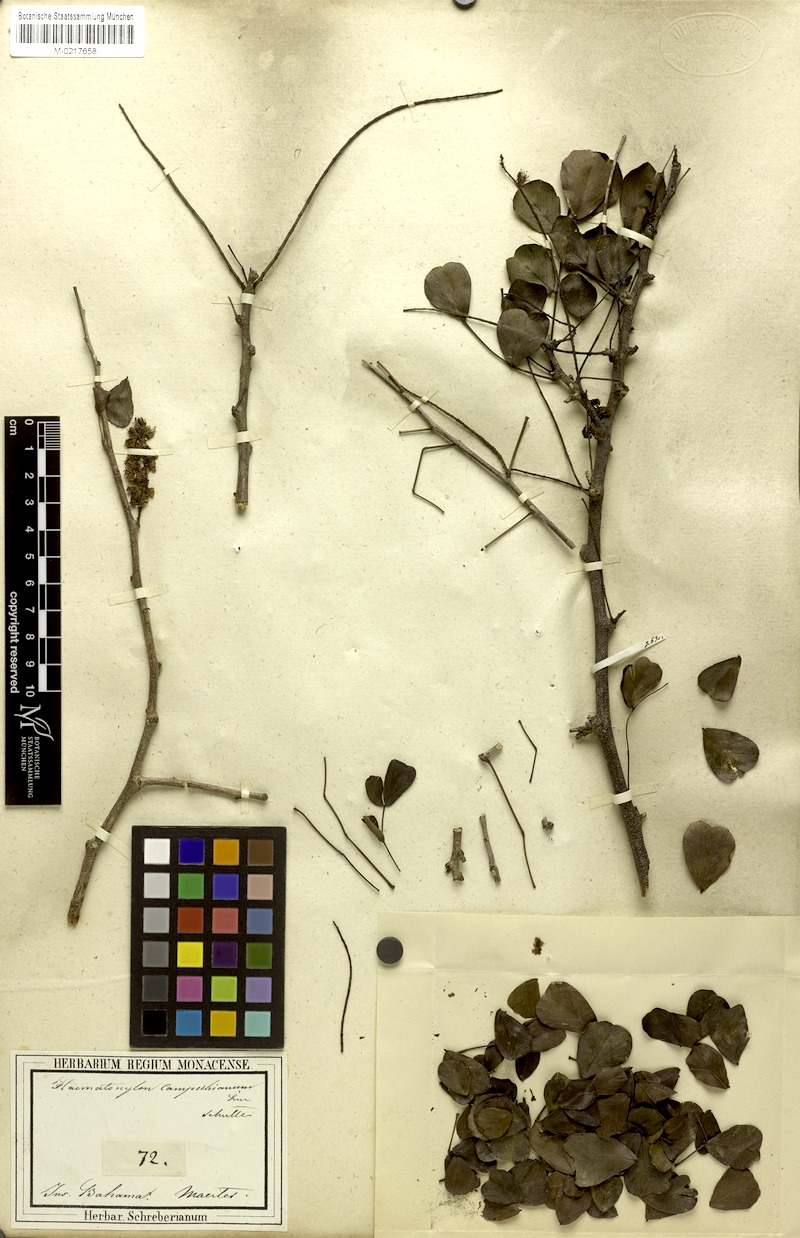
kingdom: Plantae
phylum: Tracheophyta
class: Magnoliopsida
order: Fabales
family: Fabaceae
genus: Haematoxylum
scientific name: Haematoxylum campechianum
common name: Logwood
